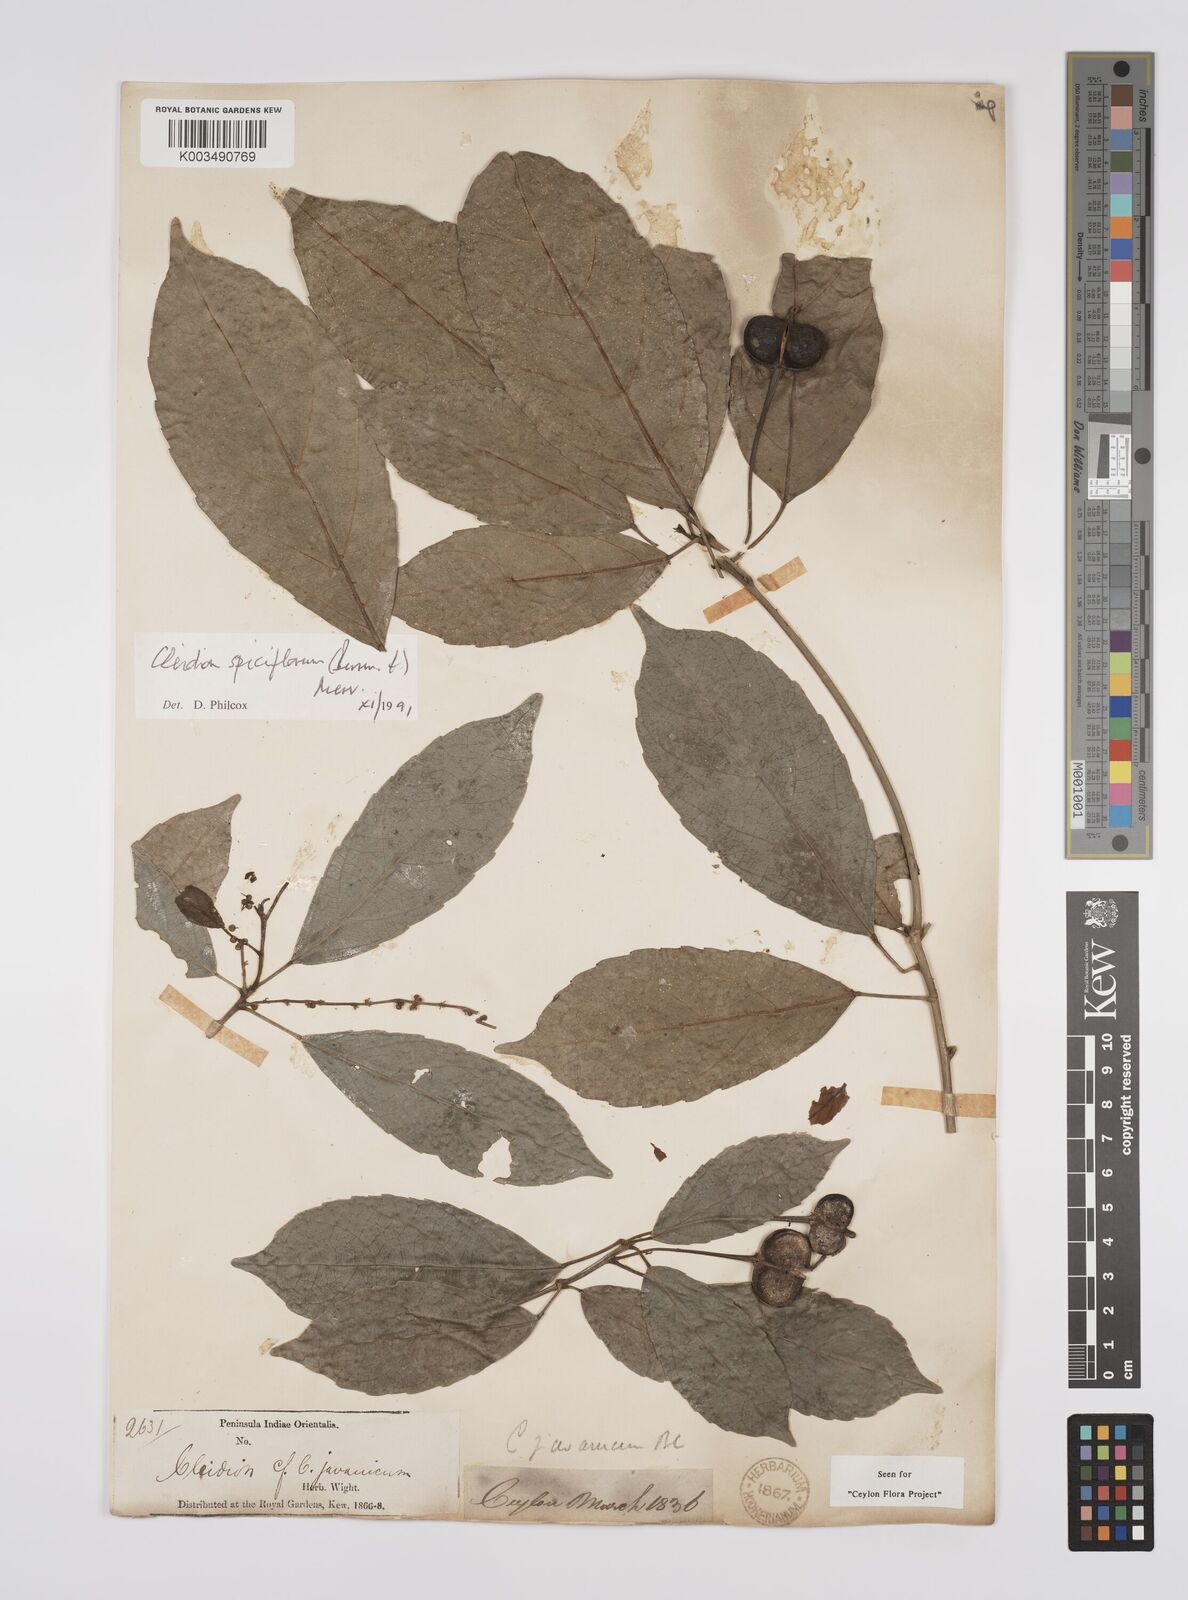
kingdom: Plantae
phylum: Tracheophyta
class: Magnoliopsida
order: Malpighiales
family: Euphorbiaceae
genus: Acalypha
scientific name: Acalypha spiciflora
